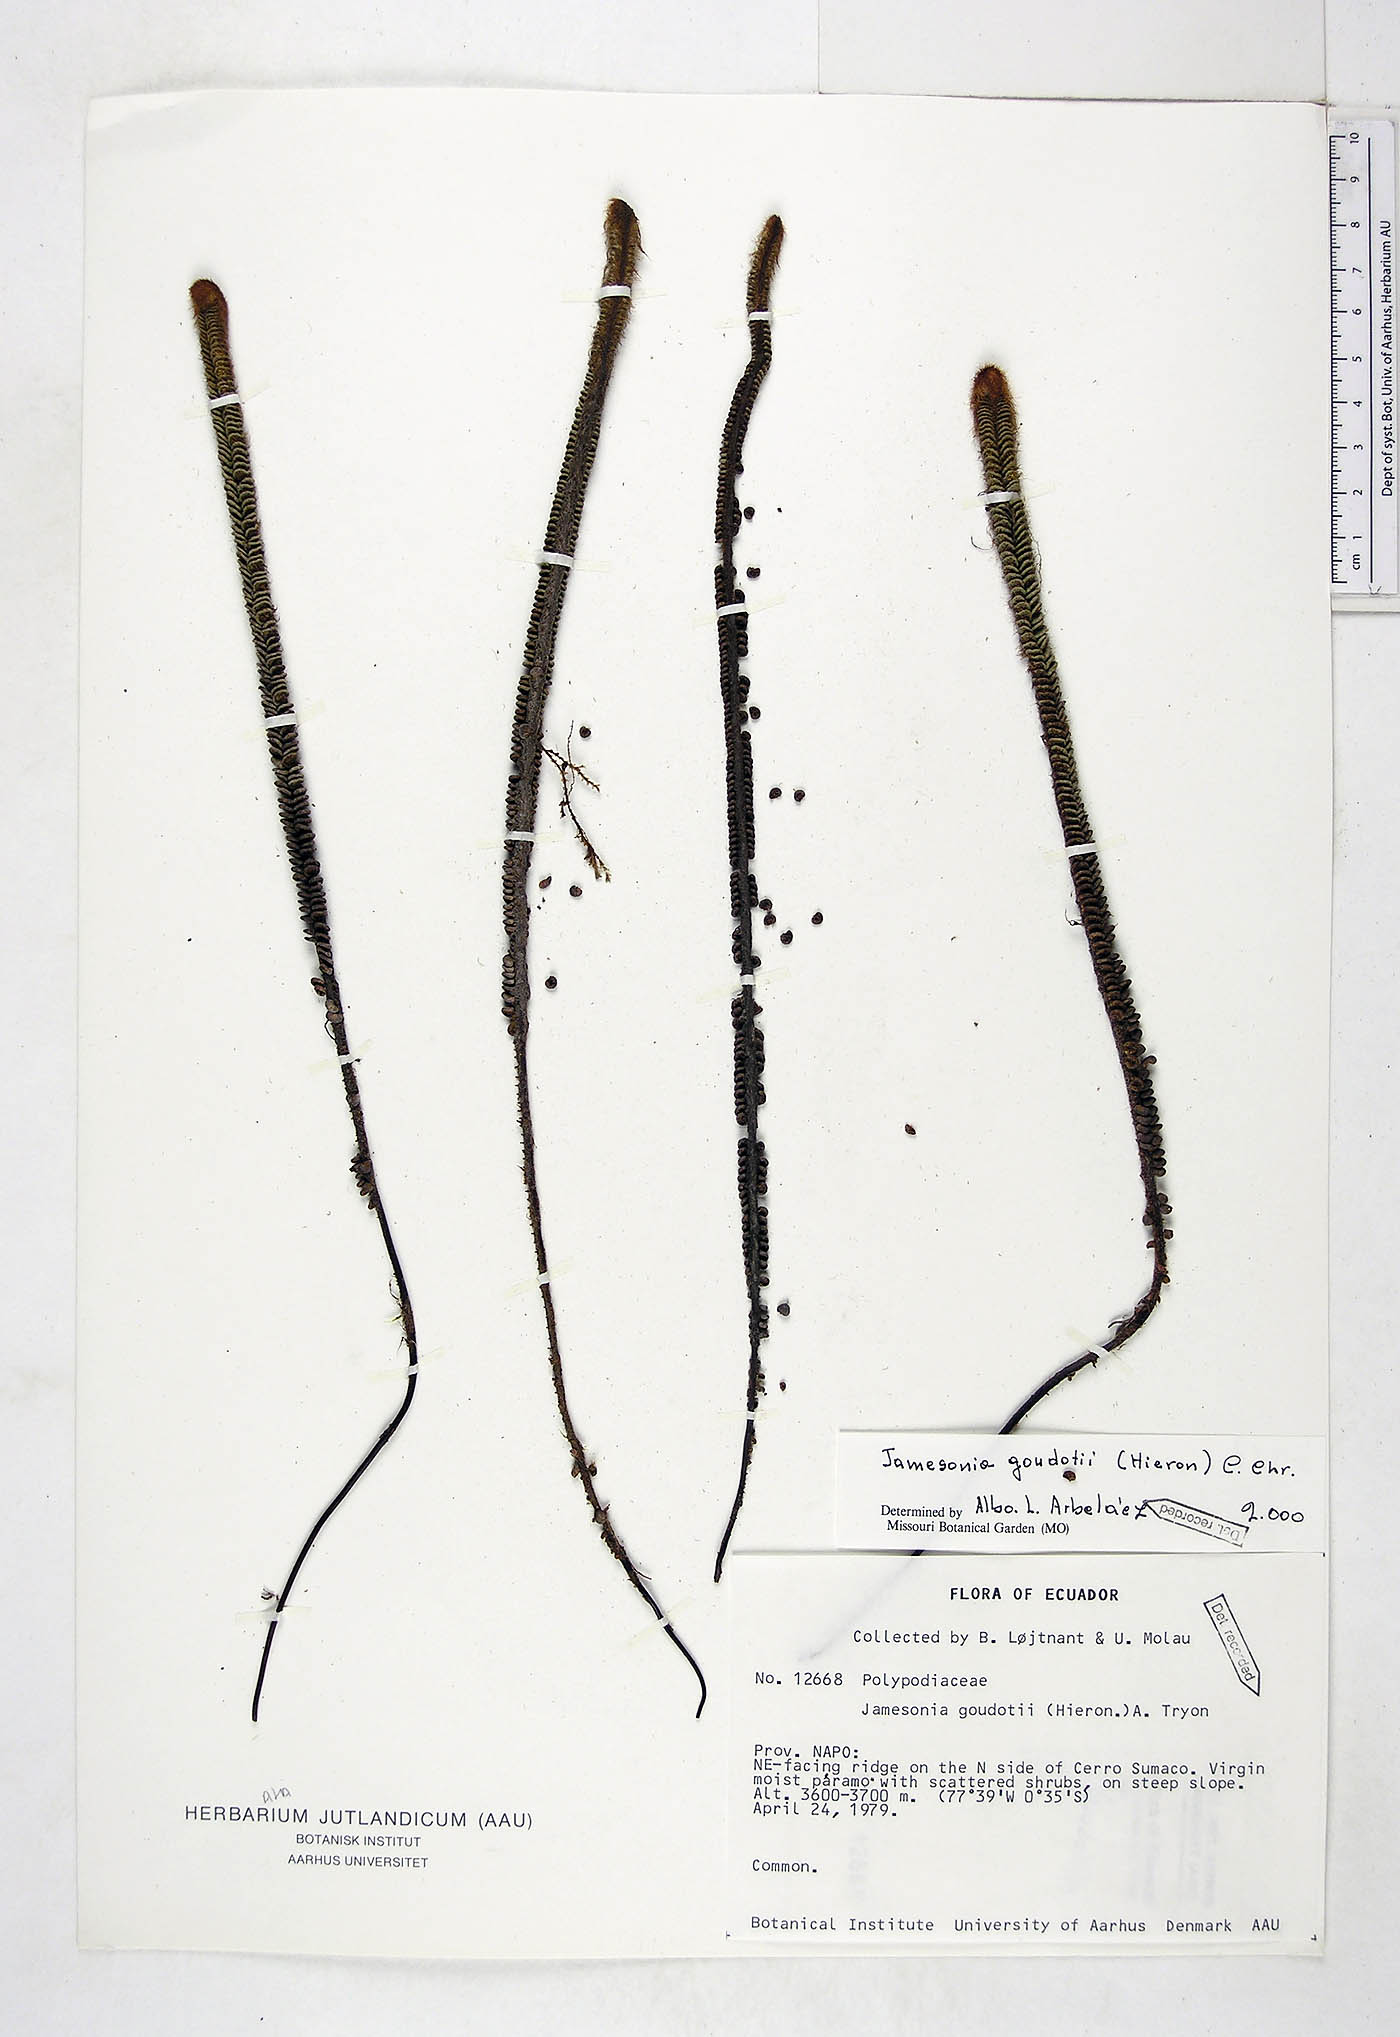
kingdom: Plantae
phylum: Tracheophyta
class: Polypodiopsida
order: Polypodiales
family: Pteridaceae
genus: Jamesonia
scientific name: Jamesonia goudotii
